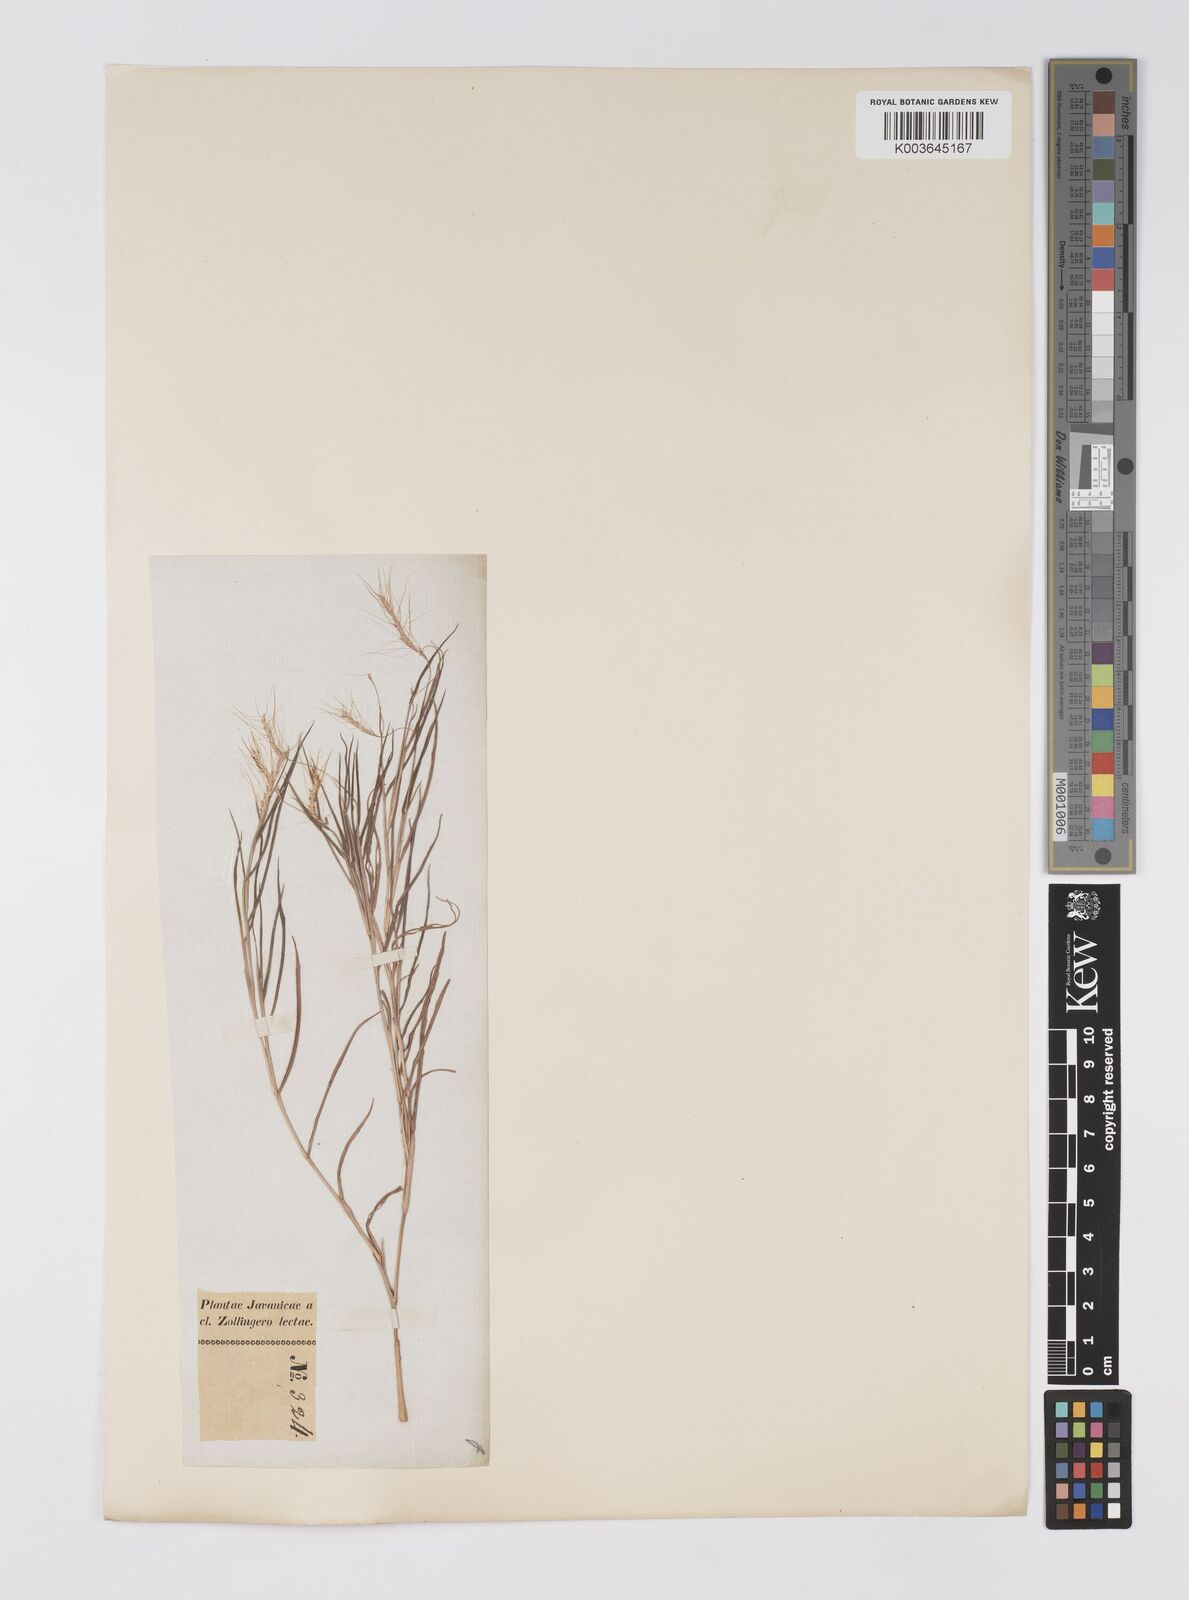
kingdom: Plantae
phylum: Tracheophyta
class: Liliopsida
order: Poales
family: Poaceae
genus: Pogonatherum
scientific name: Pogonatherum crinitum
